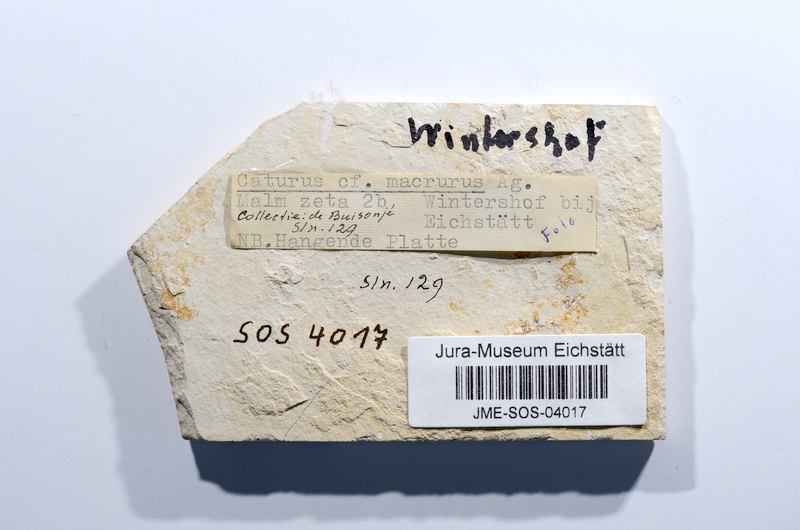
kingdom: Animalia
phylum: Chordata
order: Amiiformes
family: Caturidae
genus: Caturus
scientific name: Caturus furcatus
